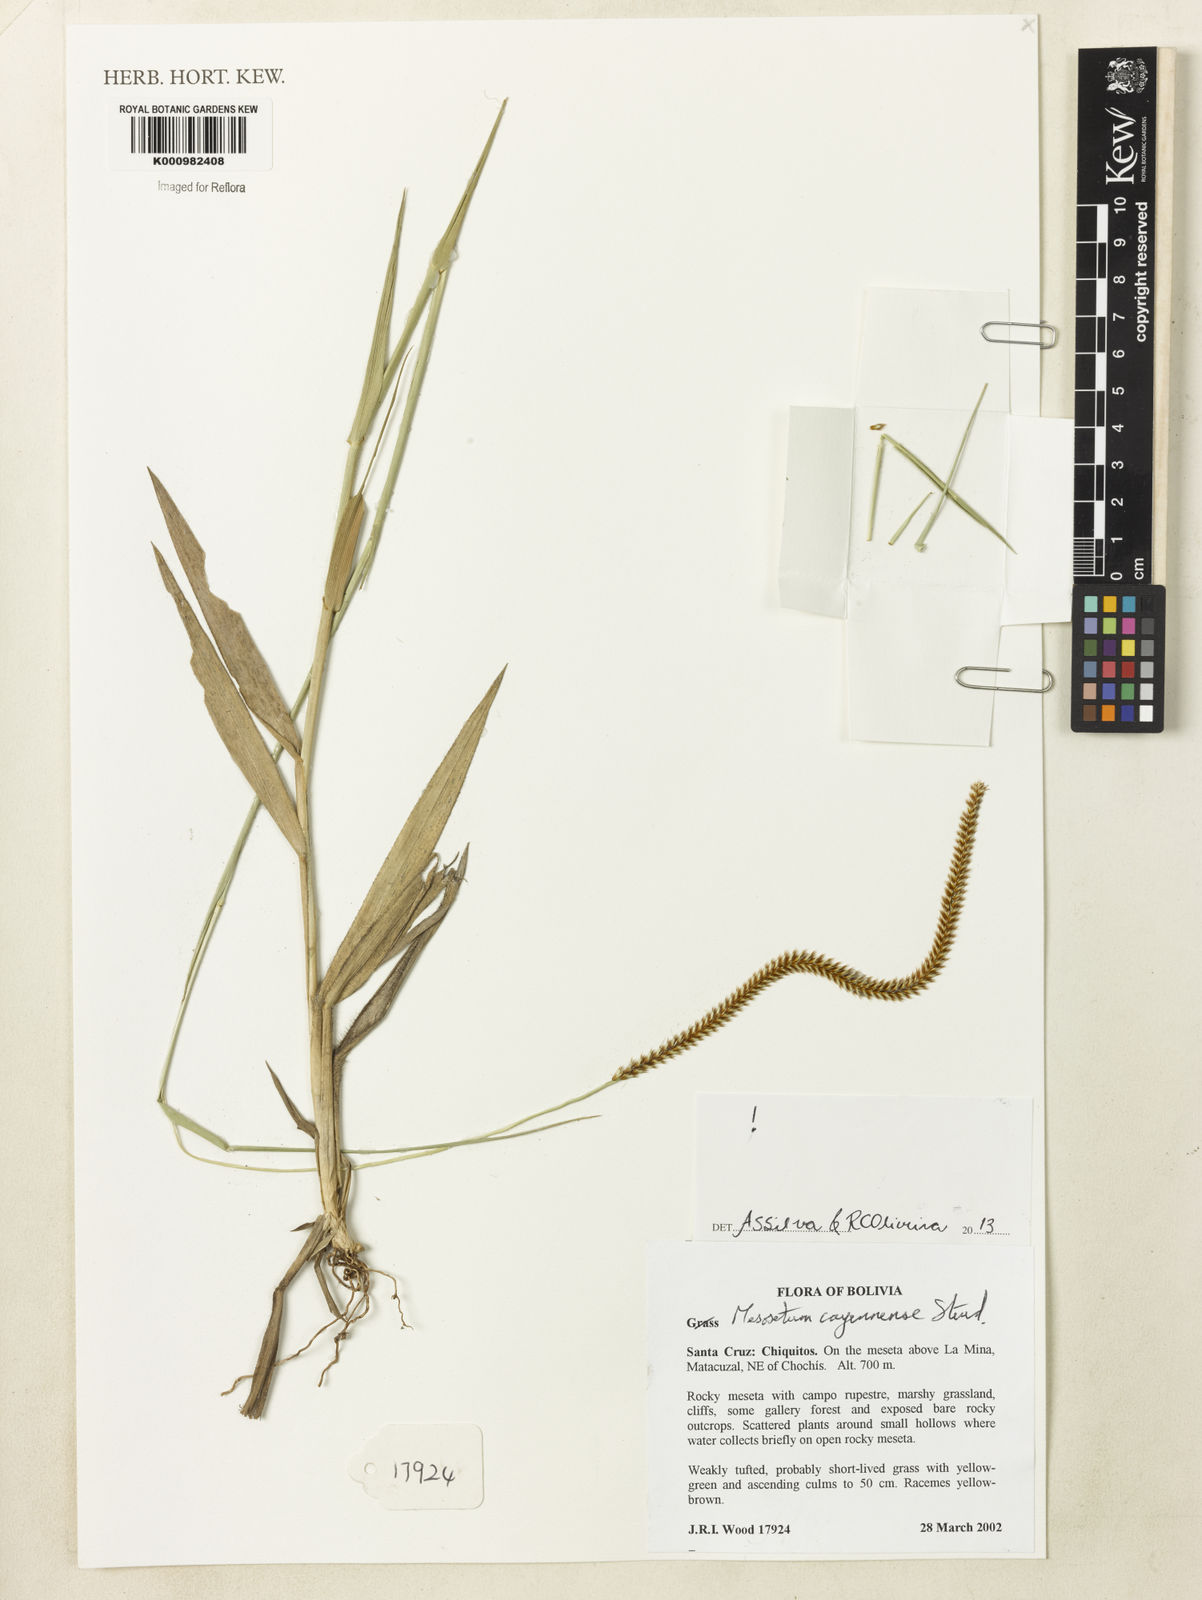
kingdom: Plantae
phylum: Tracheophyta
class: Liliopsida
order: Poales
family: Poaceae
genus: Mesosetum
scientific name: Mesosetum cayennense
